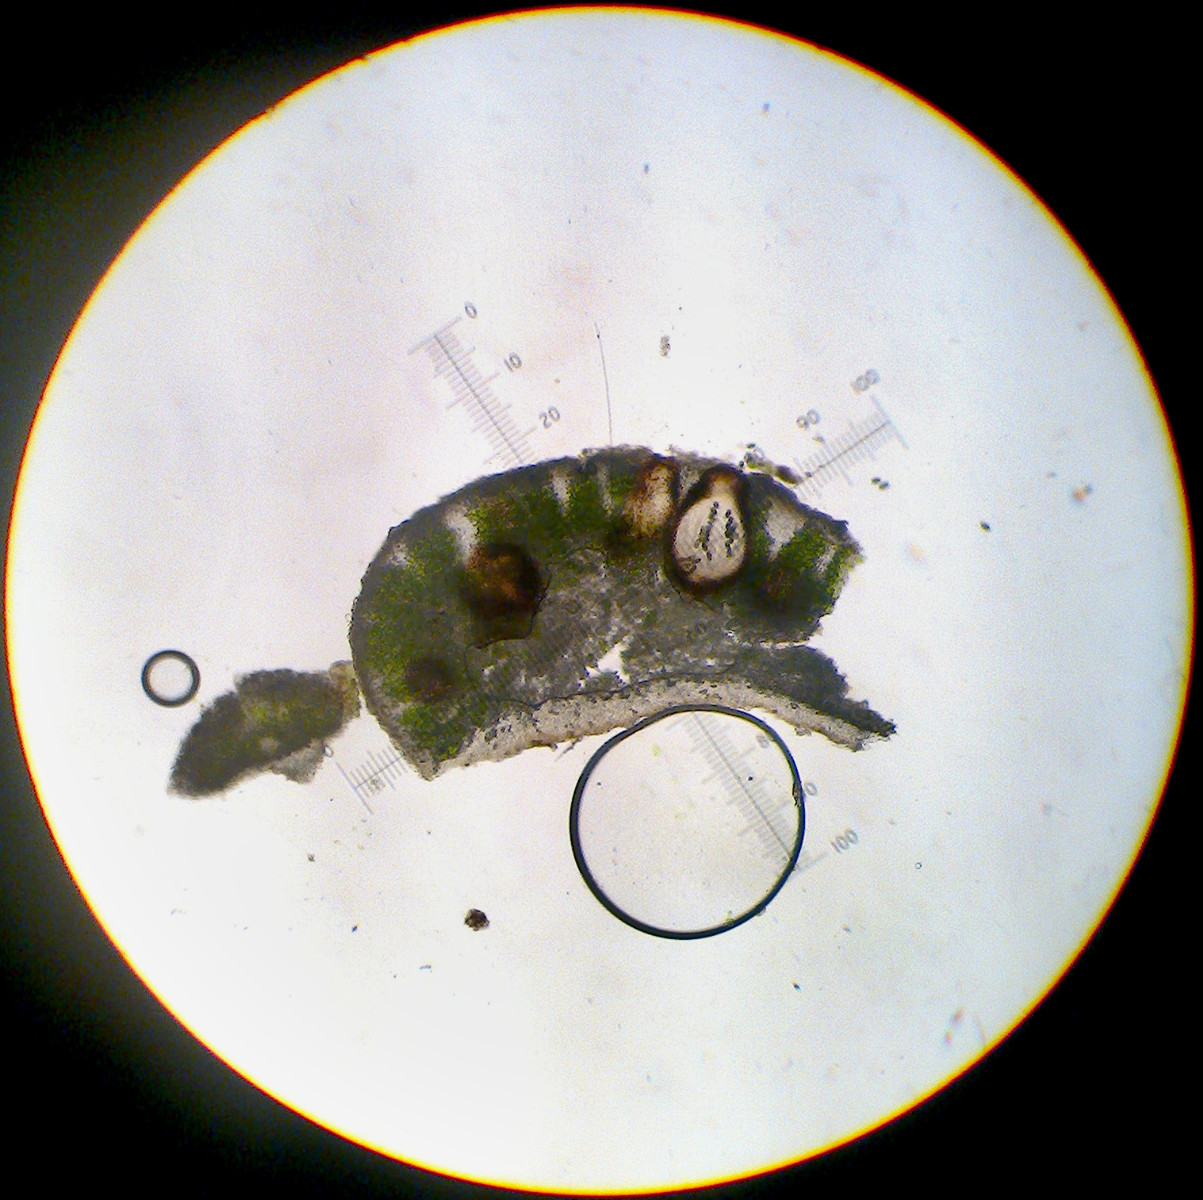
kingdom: Fungi
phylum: Ascomycota
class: Dothideomycetes
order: Trypetheliales
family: Polycoccaceae
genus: Polycoccum
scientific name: Polycoccum pulvinatum
